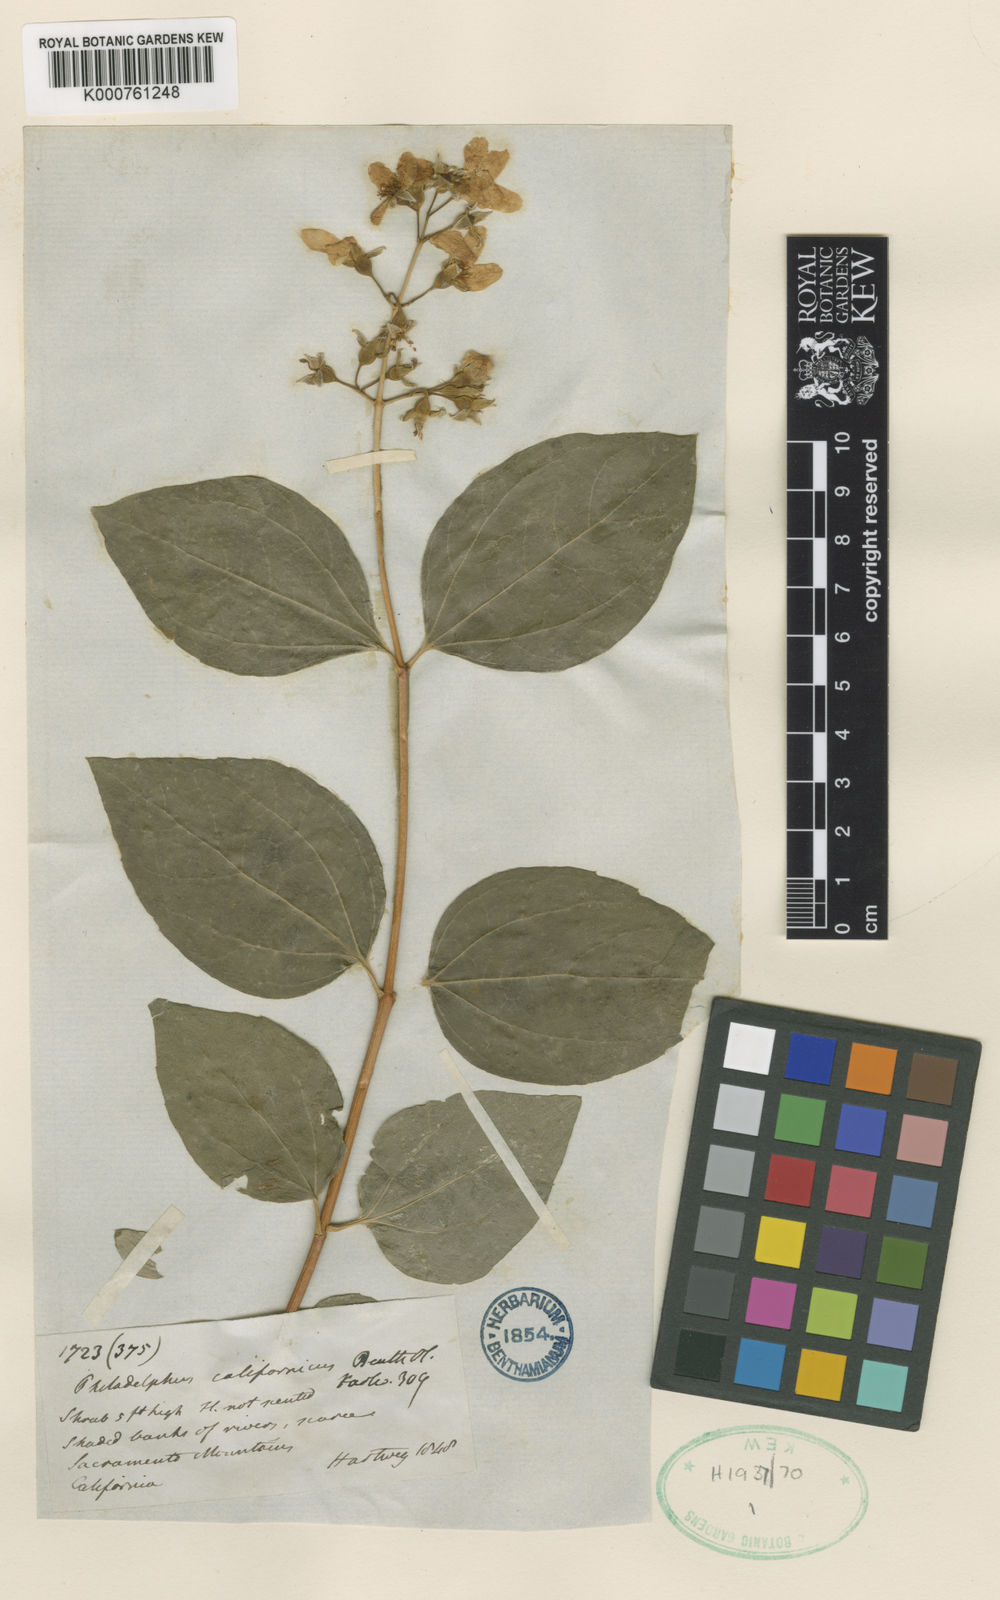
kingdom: Plantae
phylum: Tracheophyta
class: Magnoliopsida
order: Cornales
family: Hydrangeaceae
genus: Philadelphus
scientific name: Philadelphus lewisii
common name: Lewis's mock orange
